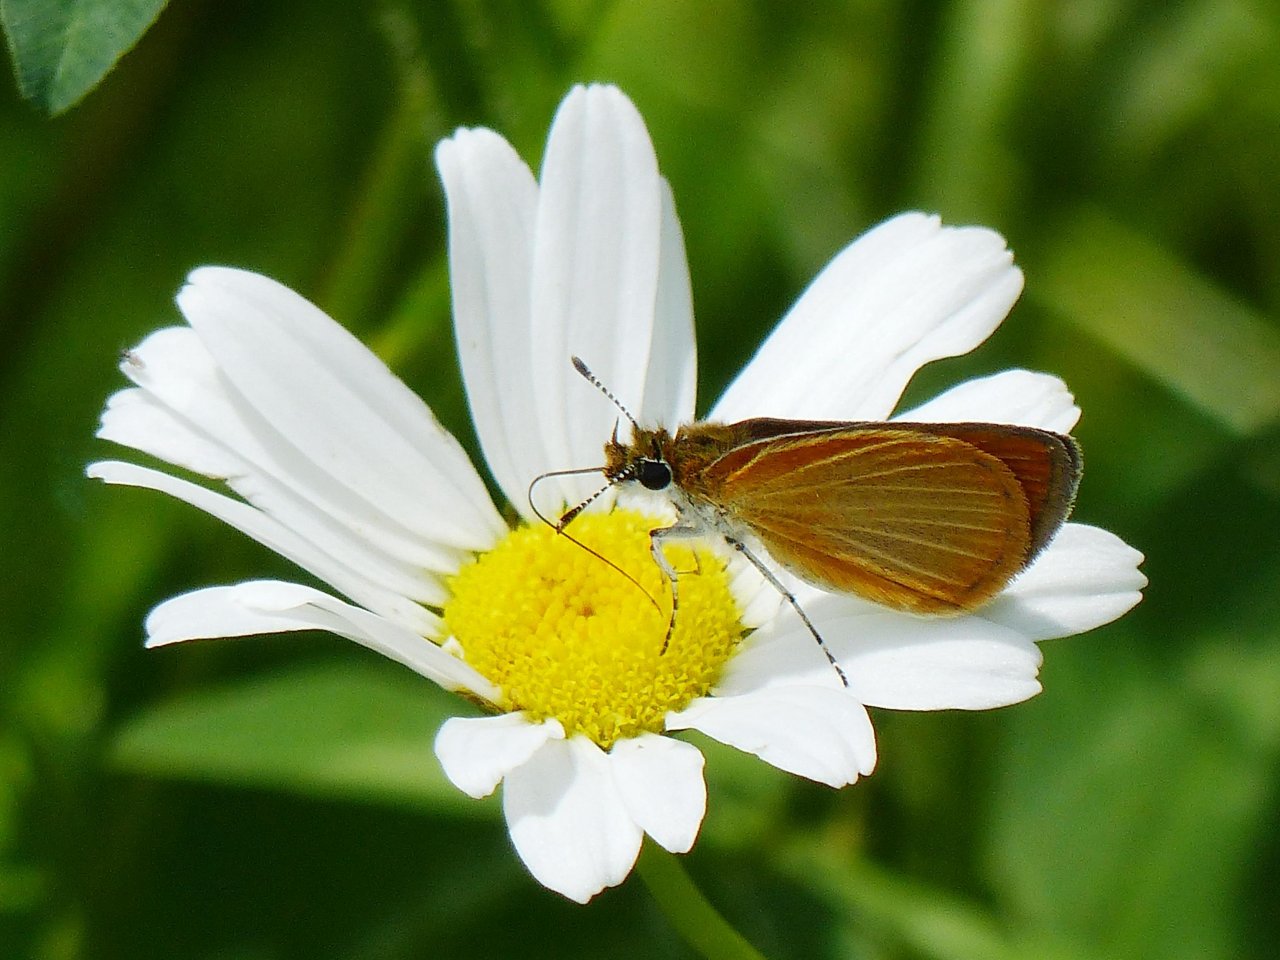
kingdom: Animalia
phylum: Arthropoda
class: Insecta
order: Lepidoptera
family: Hesperiidae
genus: Ancyloxypha
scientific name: Ancyloxypha numitor
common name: Least Skipper
